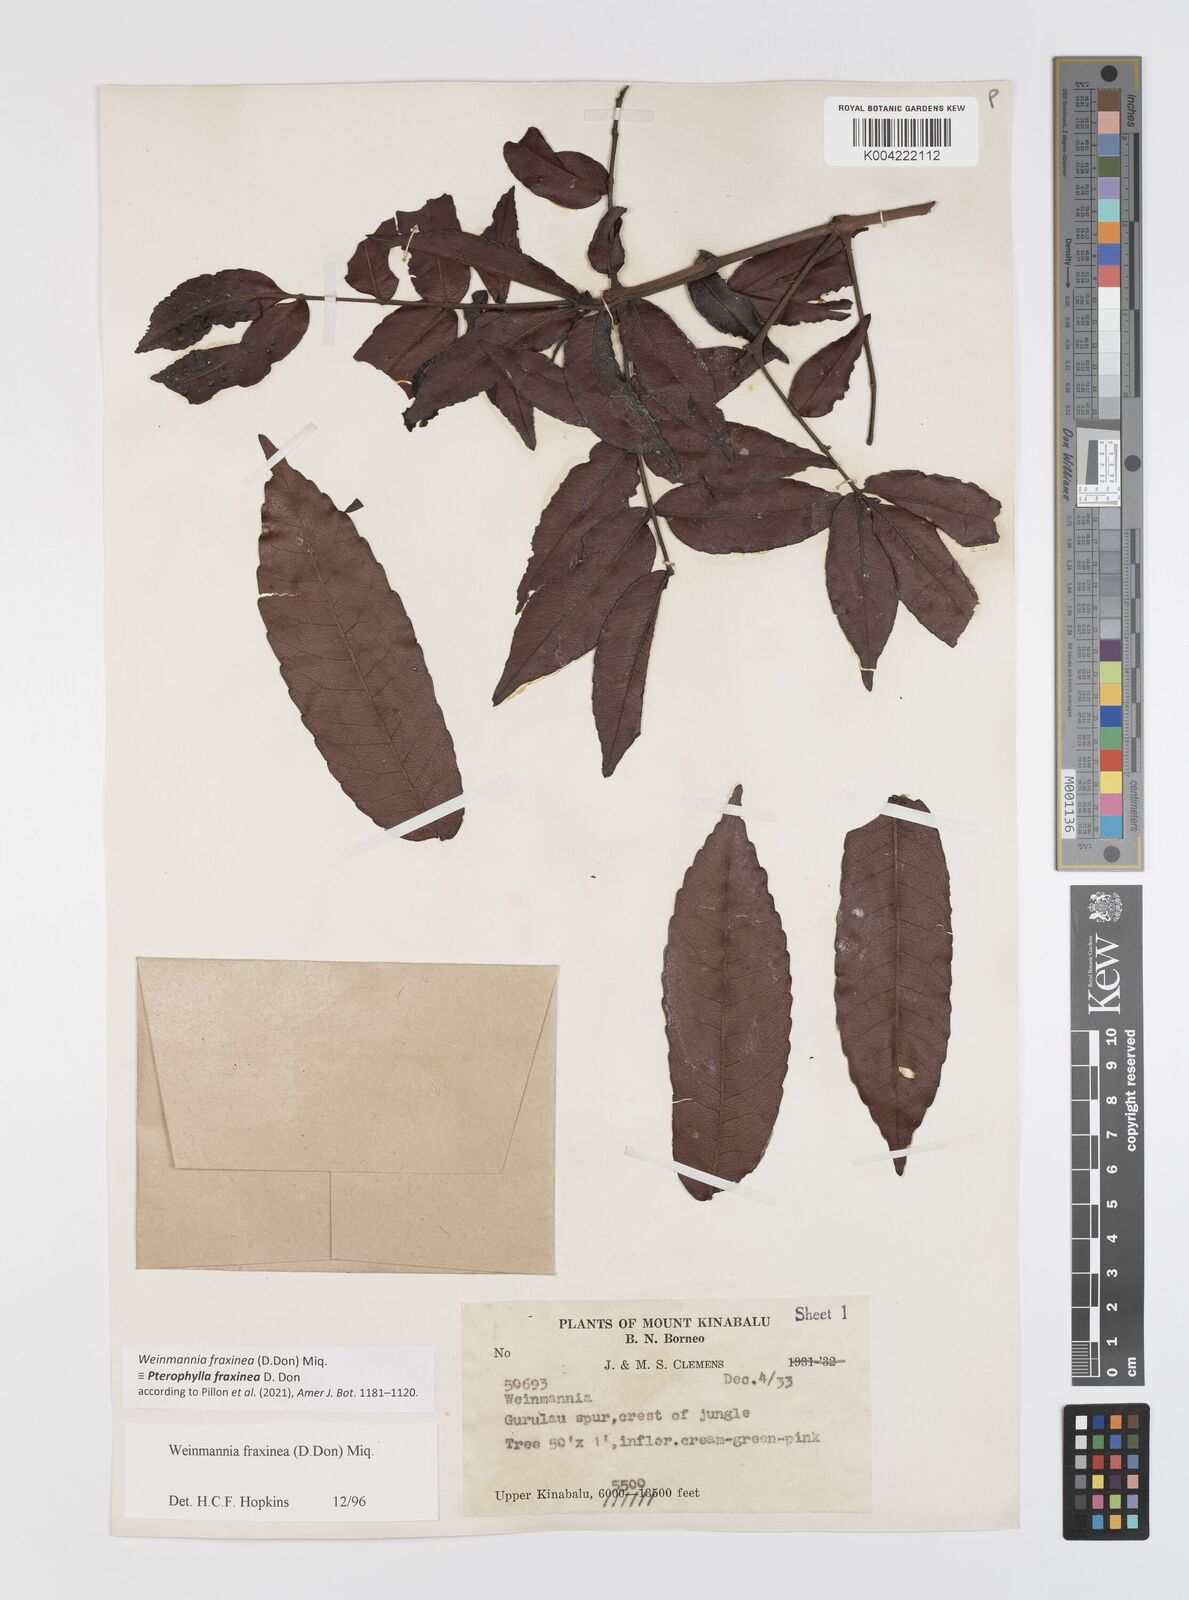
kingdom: Plantae
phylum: Tracheophyta
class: Magnoliopsida
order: Oxalidales
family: Cunoniaceae
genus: Pterophylla
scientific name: Pterophylla fraxinea
